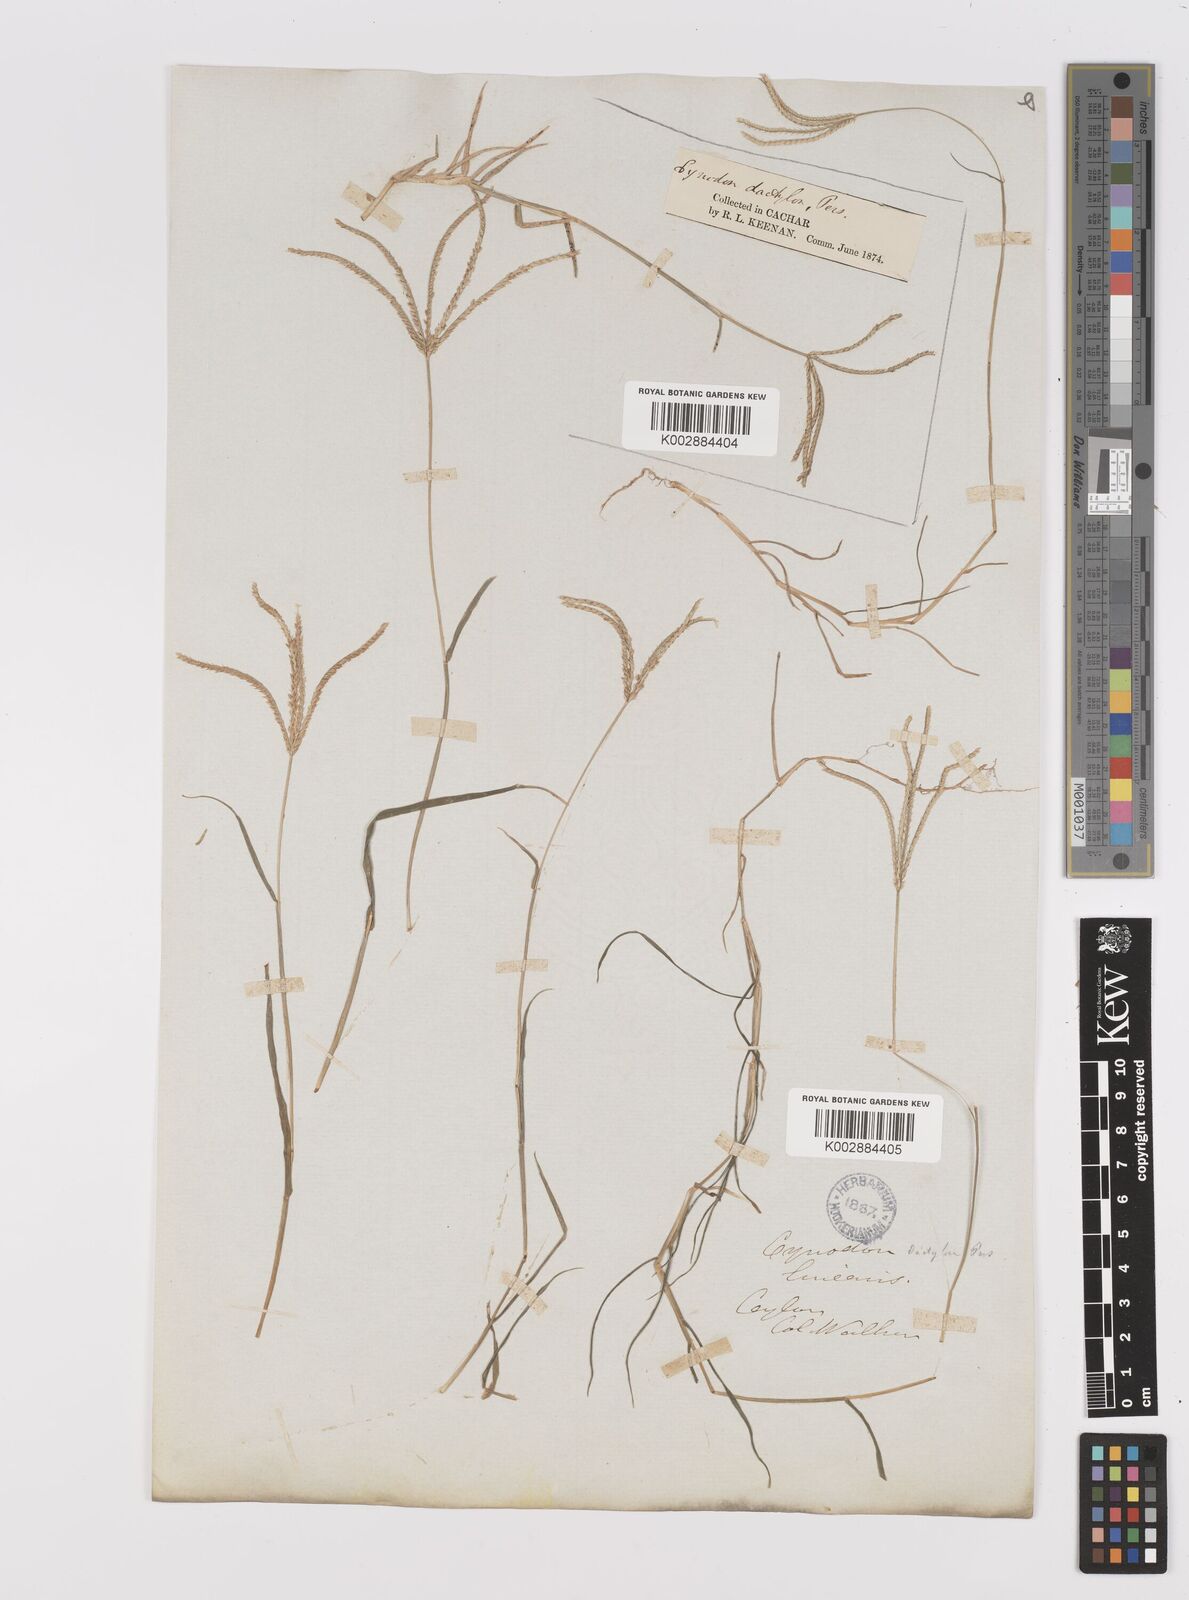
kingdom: Plantae
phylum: Tracheophyta
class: Liliopsida
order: Poales
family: Poaceae
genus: Cynodon
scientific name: Cynodon dactylon
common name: Bermuda grass
